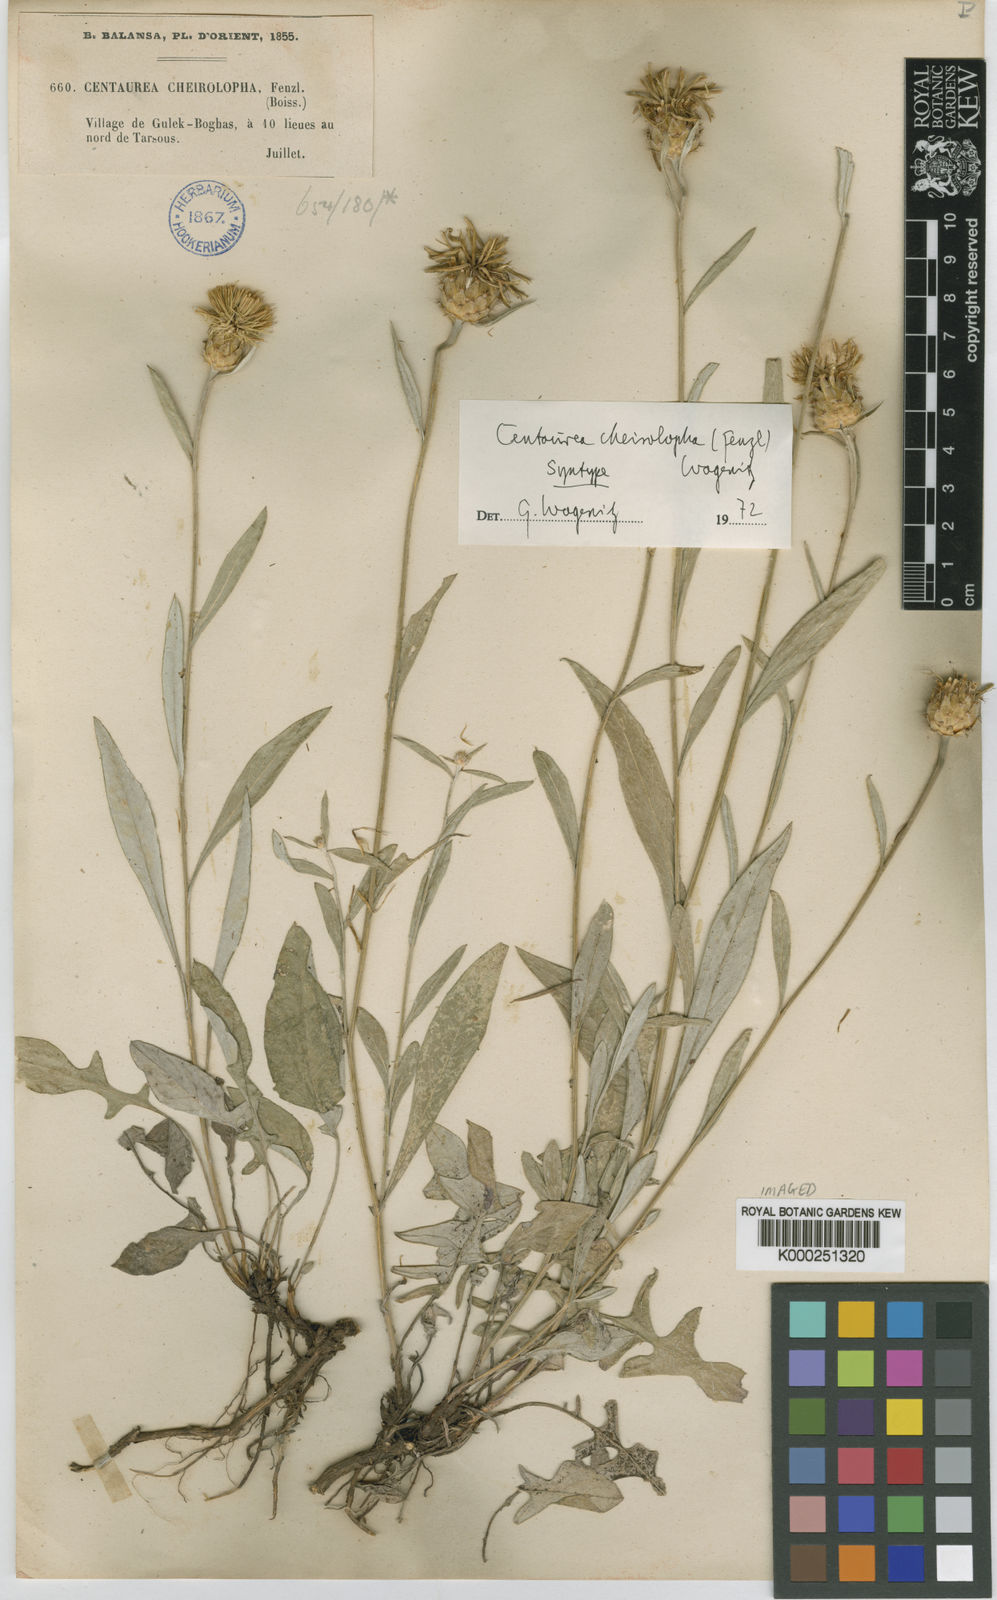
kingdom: Plantae
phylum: Tracheophyta
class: Magnoliopsida
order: Asterales
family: Asteraceae
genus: Centaurea
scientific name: Centaurea cheirolopha
